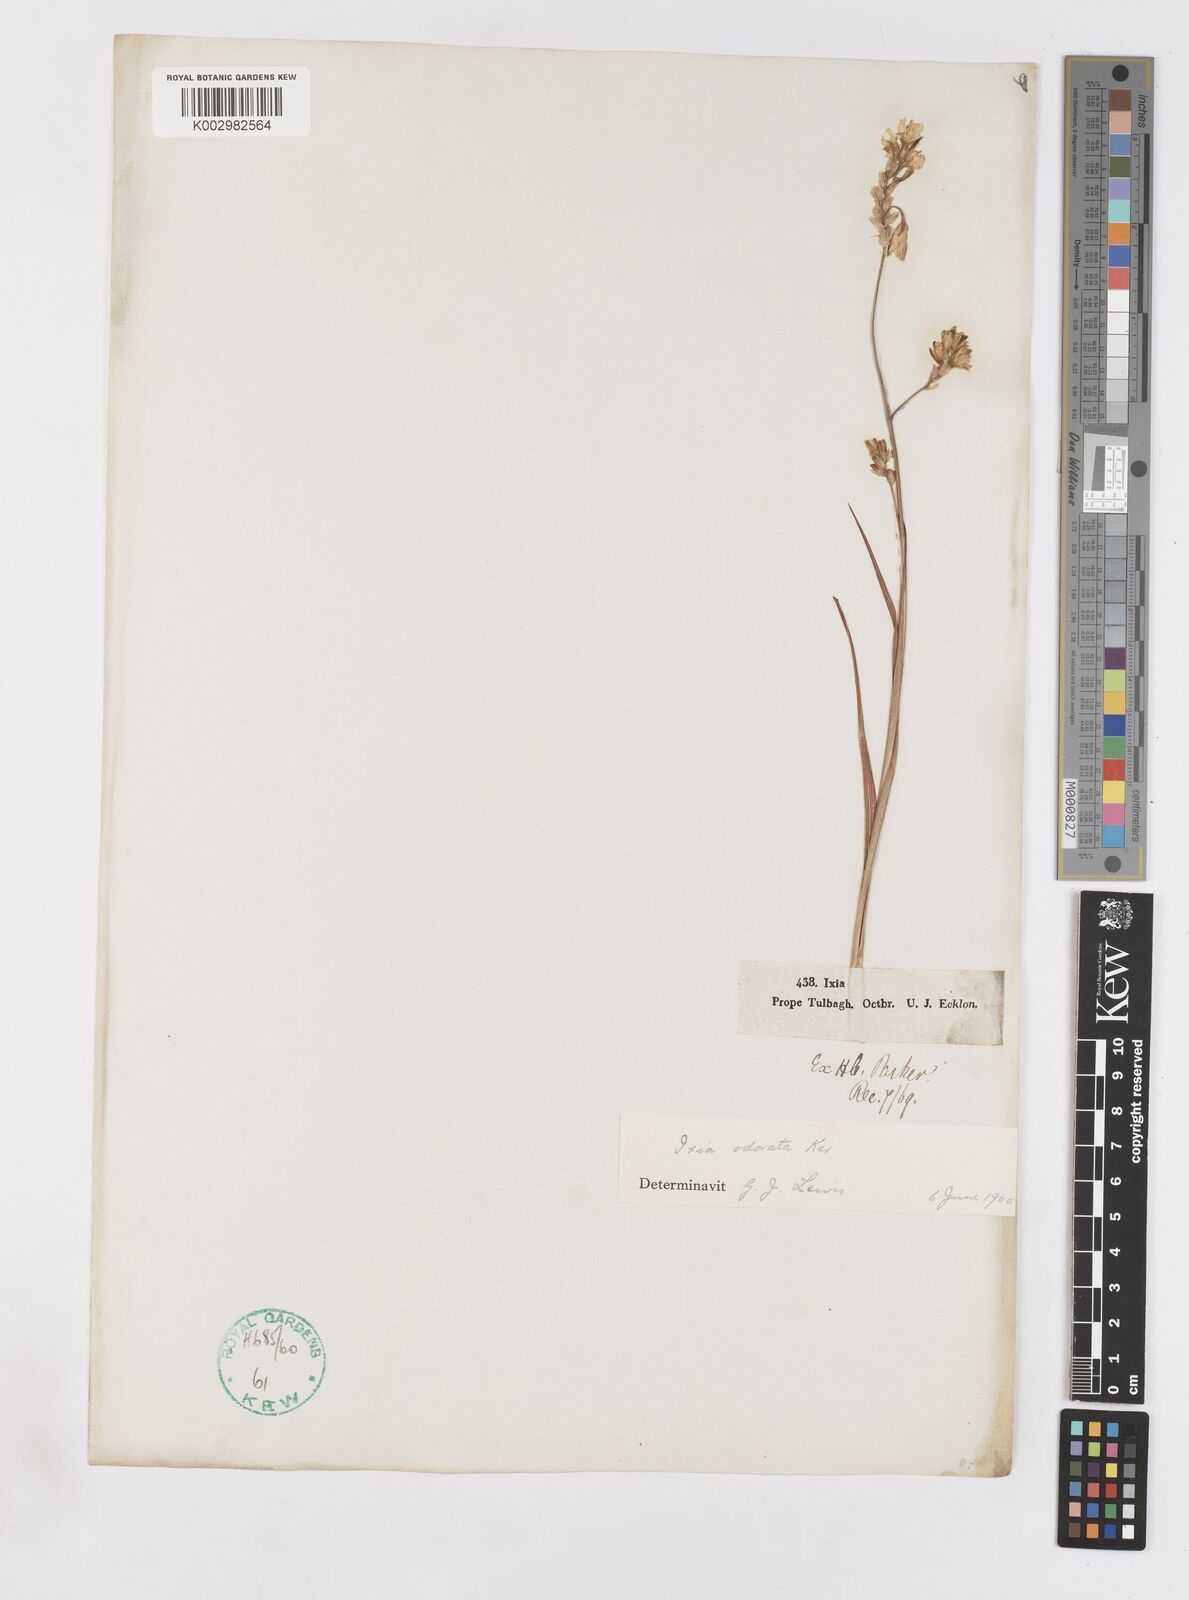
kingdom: Plantae
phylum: Tracheophyta
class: Liliopsida
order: Asparagales
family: Iridaceae
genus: Ixia
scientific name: Ixia odorata
